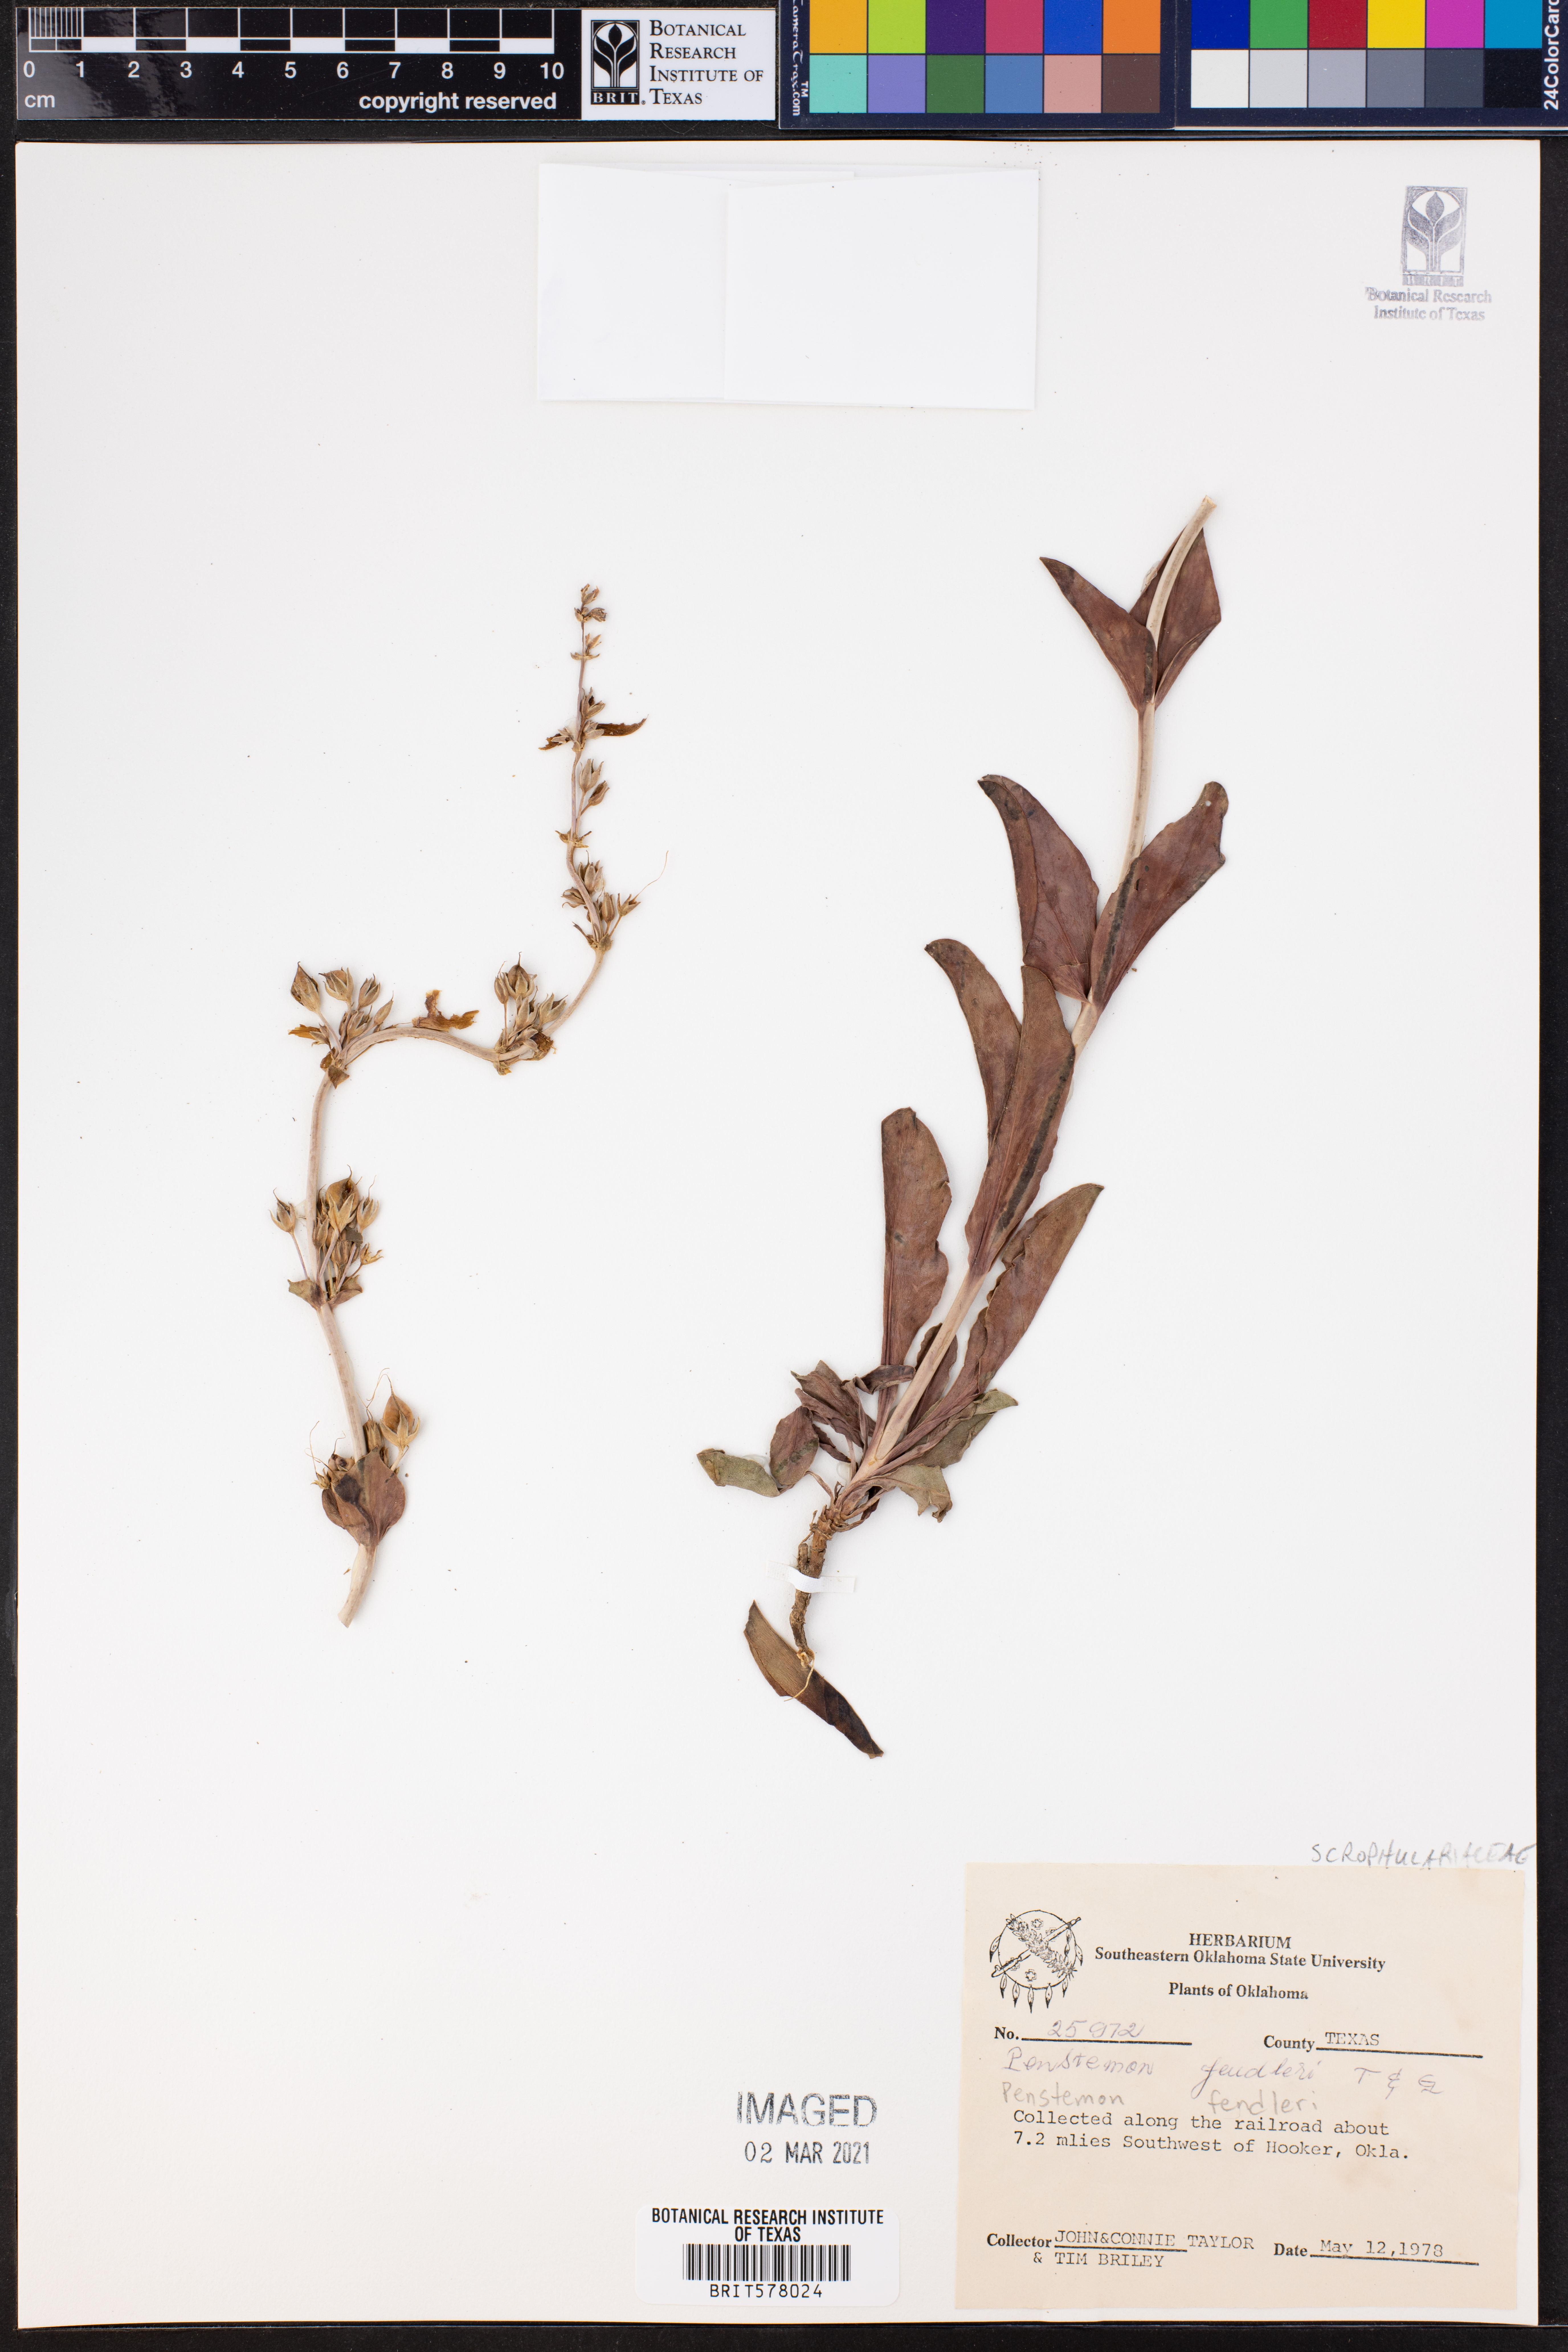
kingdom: Plantae
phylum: Tracheophyta
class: Magnoliopsida
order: Lamiales
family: Plantaginaceae
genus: Penstemon
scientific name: Penstemon fendleri
